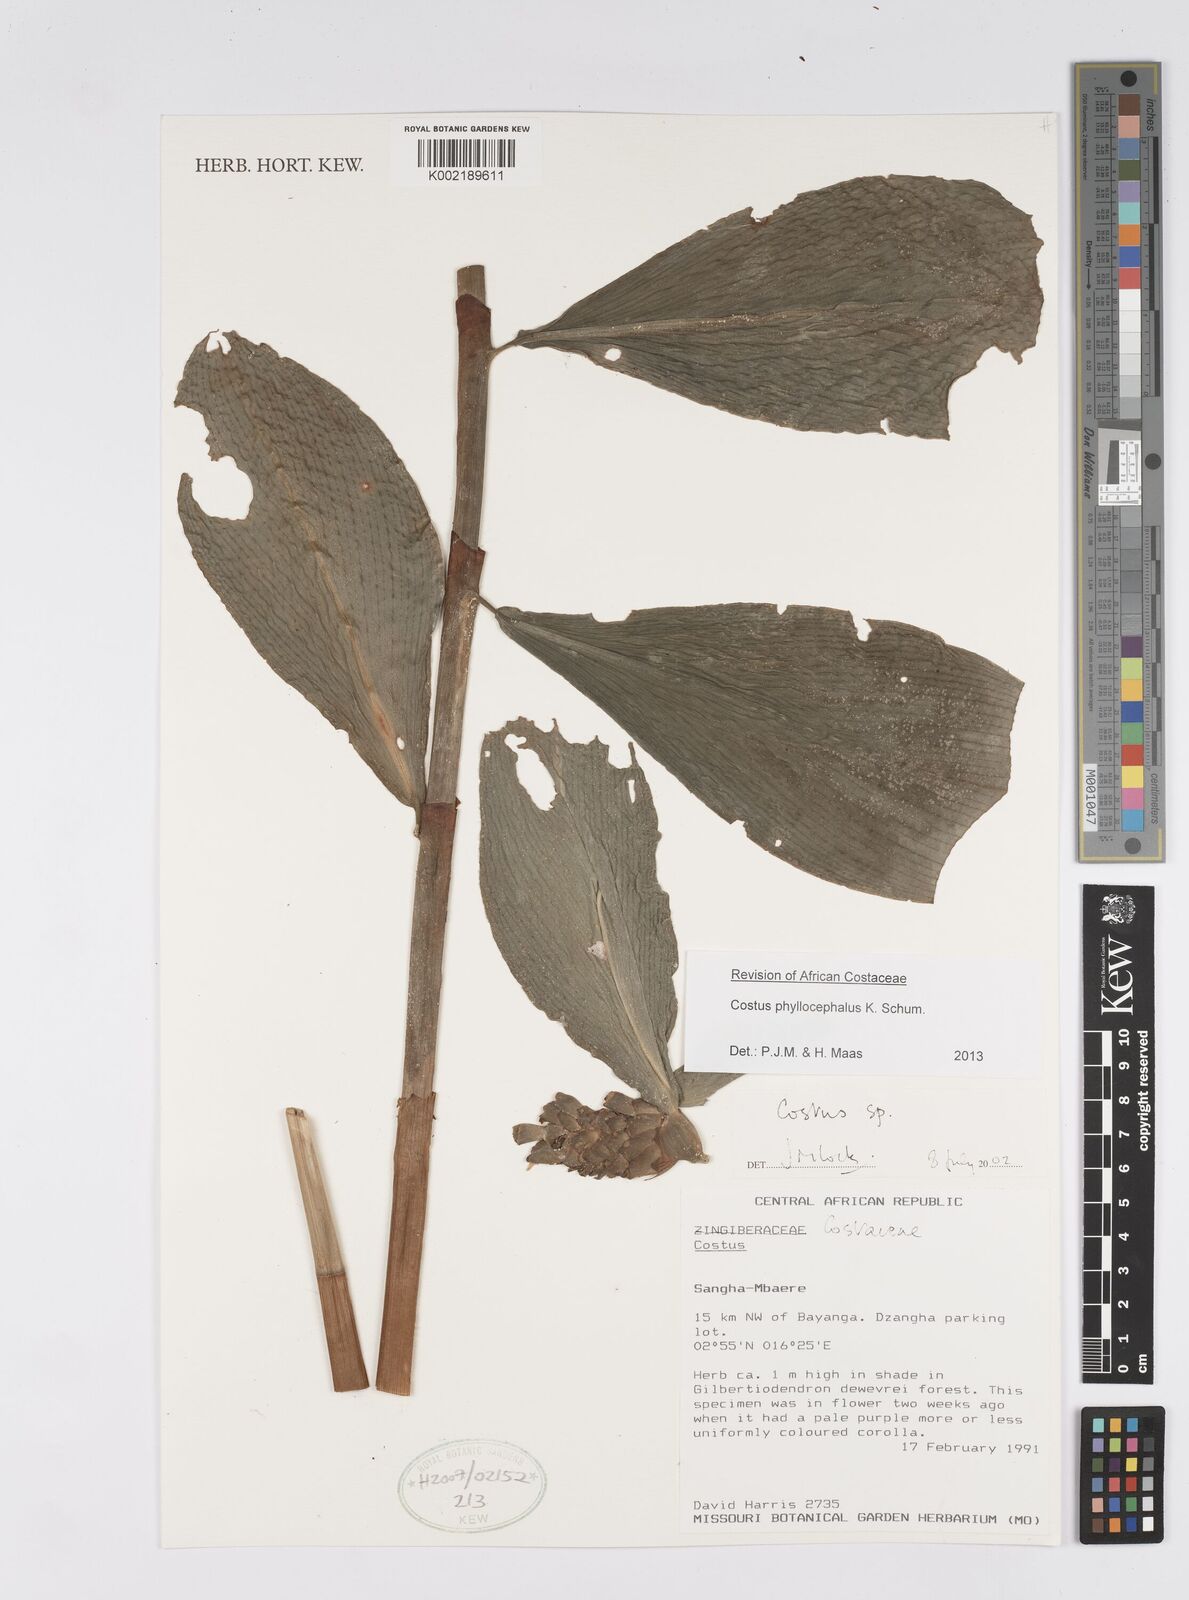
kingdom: Plantae
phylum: Tracheophyta
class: Liliopsida
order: Zingiberales
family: Costaceae
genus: Costus
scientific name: Costus phyllocephalus
